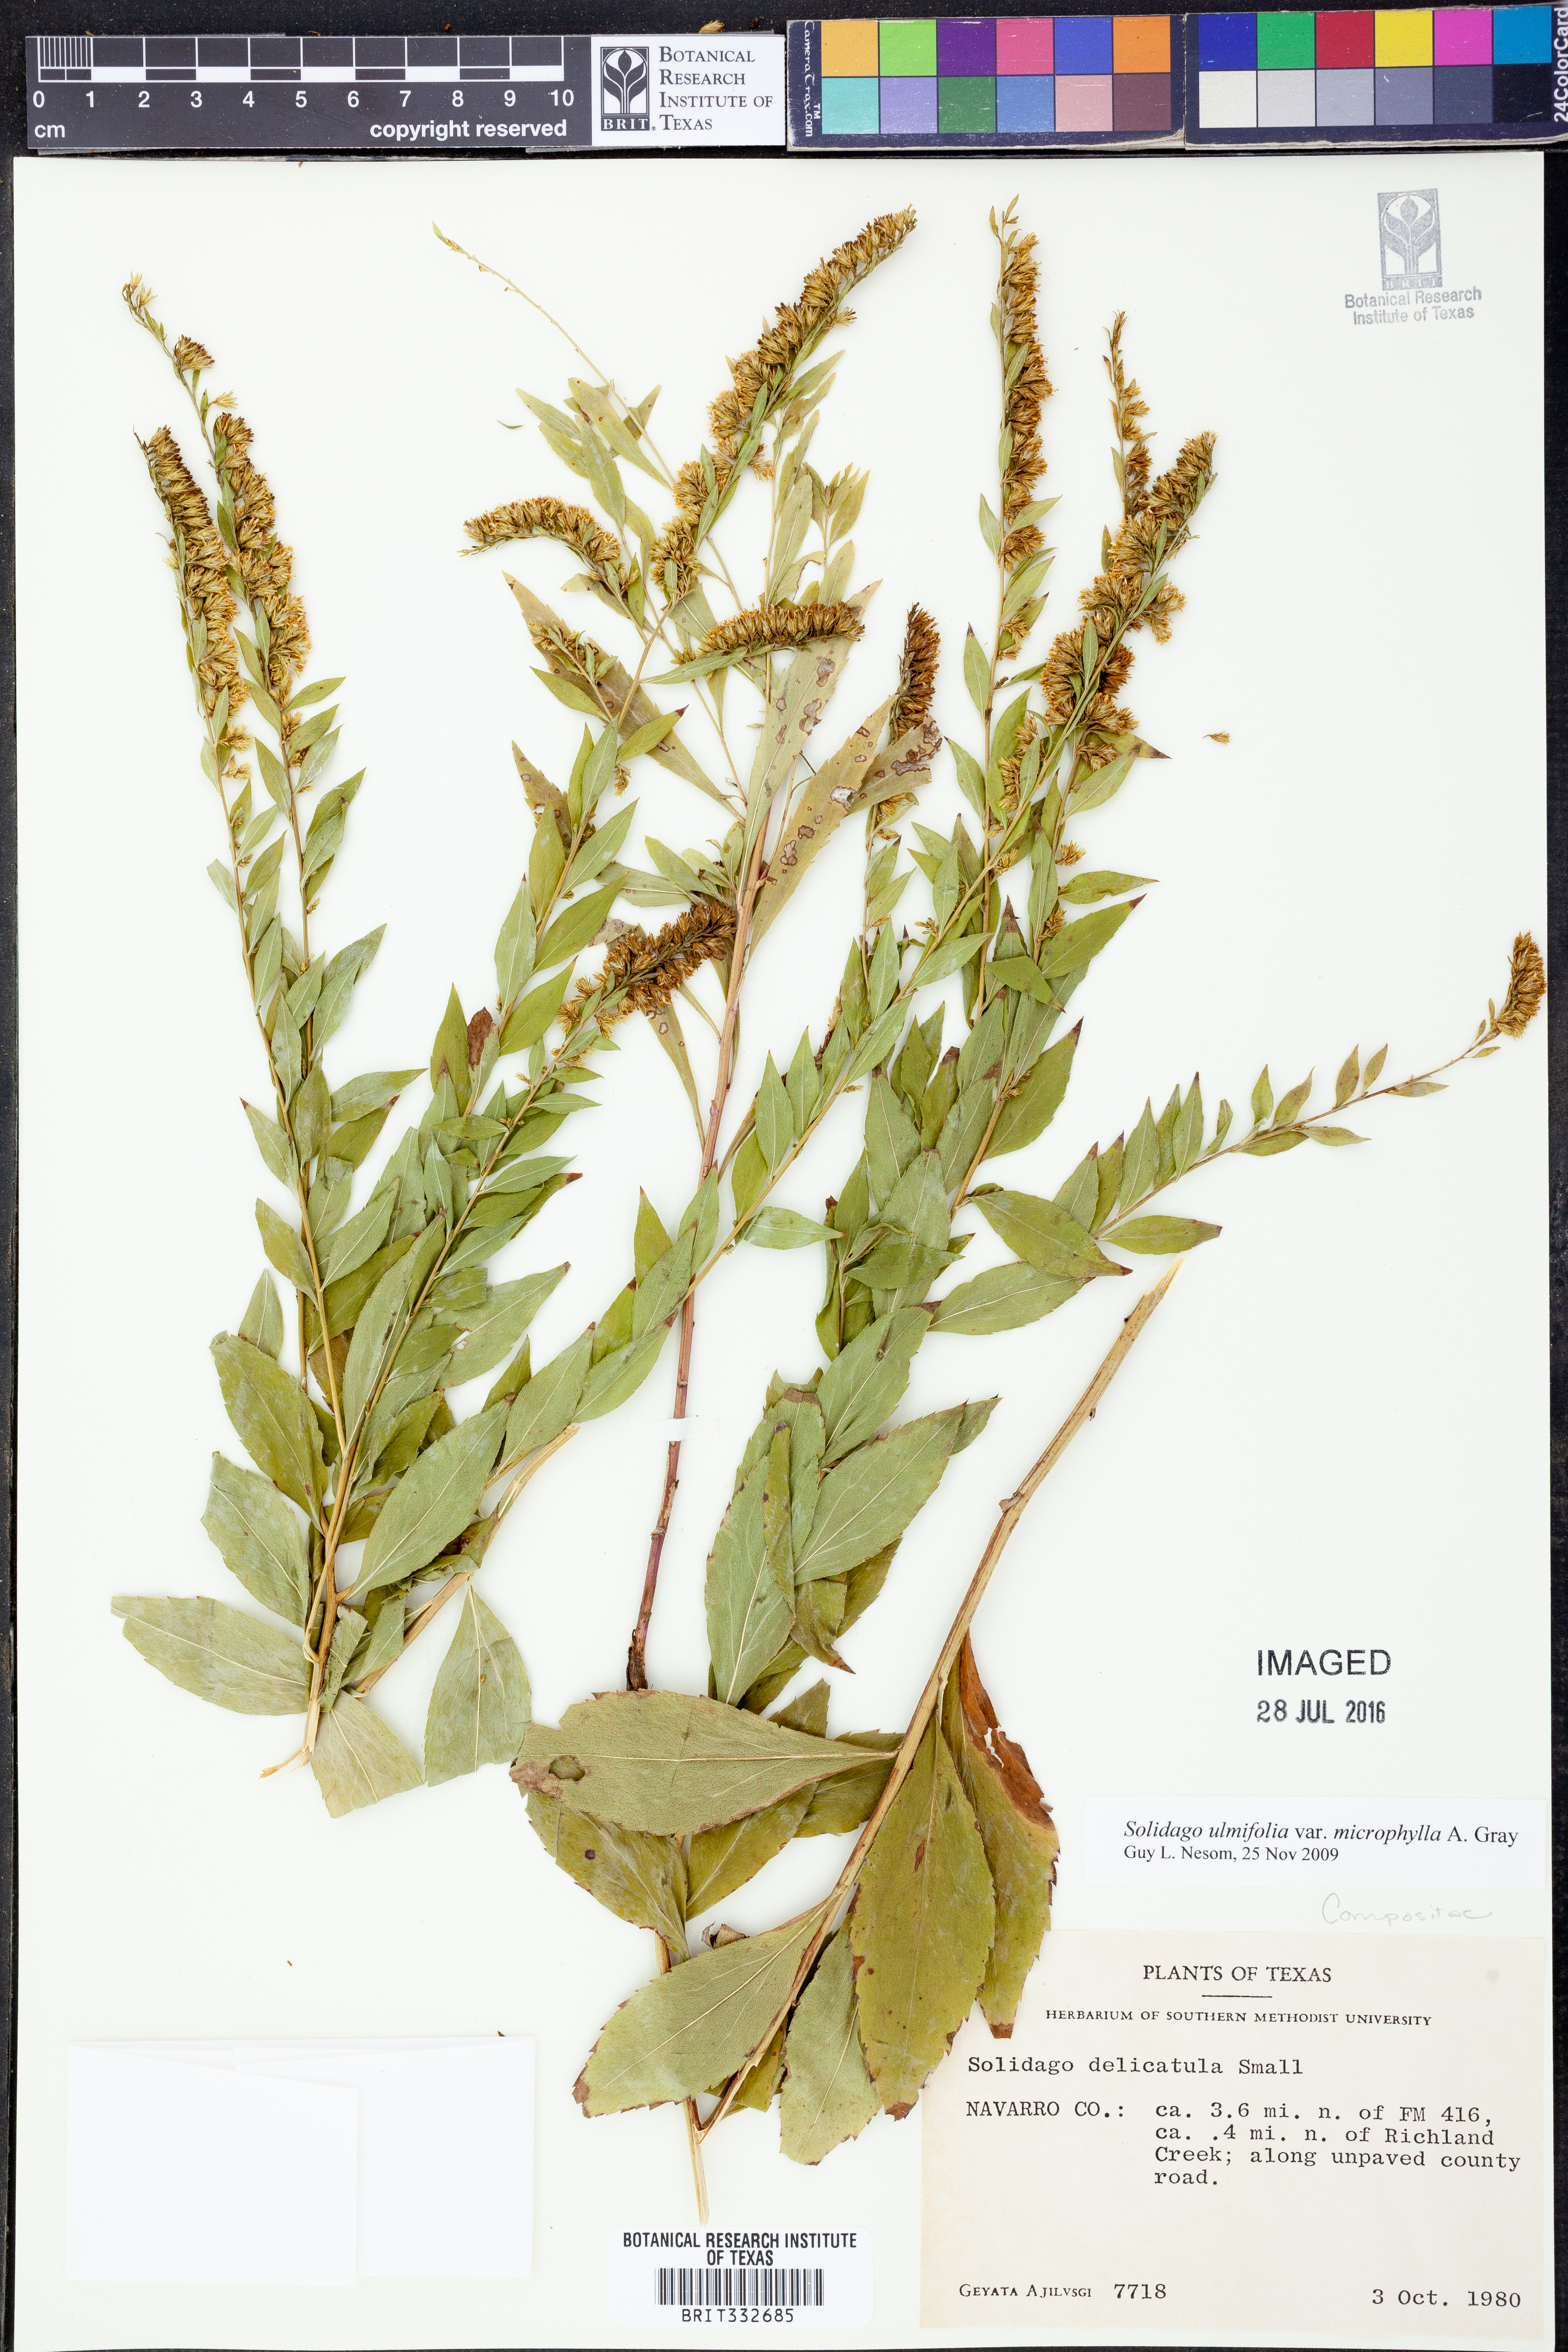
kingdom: Plantae
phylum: Tracheophyta
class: Magnoliopsida
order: Asterales
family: Asteraceae
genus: Solidago
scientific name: Solidago delicatula
